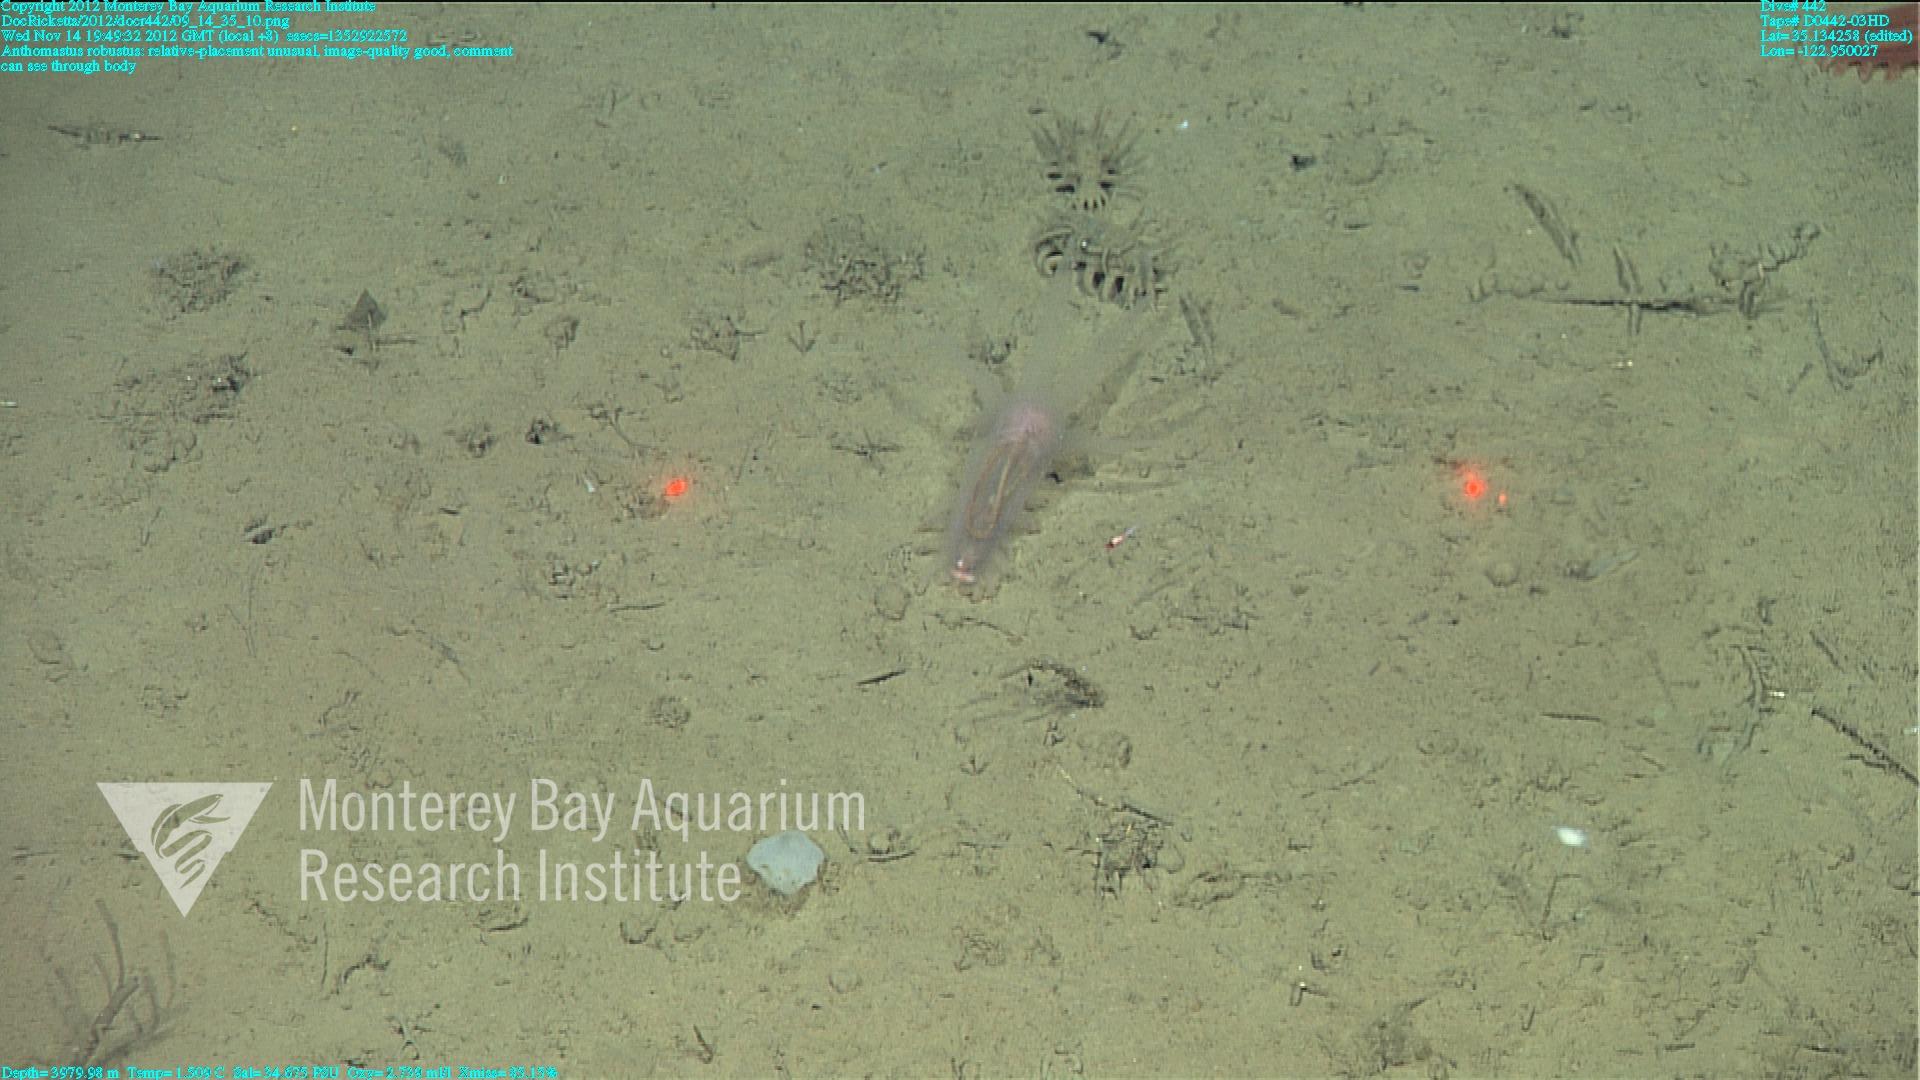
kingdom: Animalia
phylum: Cnidaria
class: Anthozoa
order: Scleralcyonacea
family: Coralliidae
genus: Bathyalcyon
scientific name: Bathyalcyon robustum
